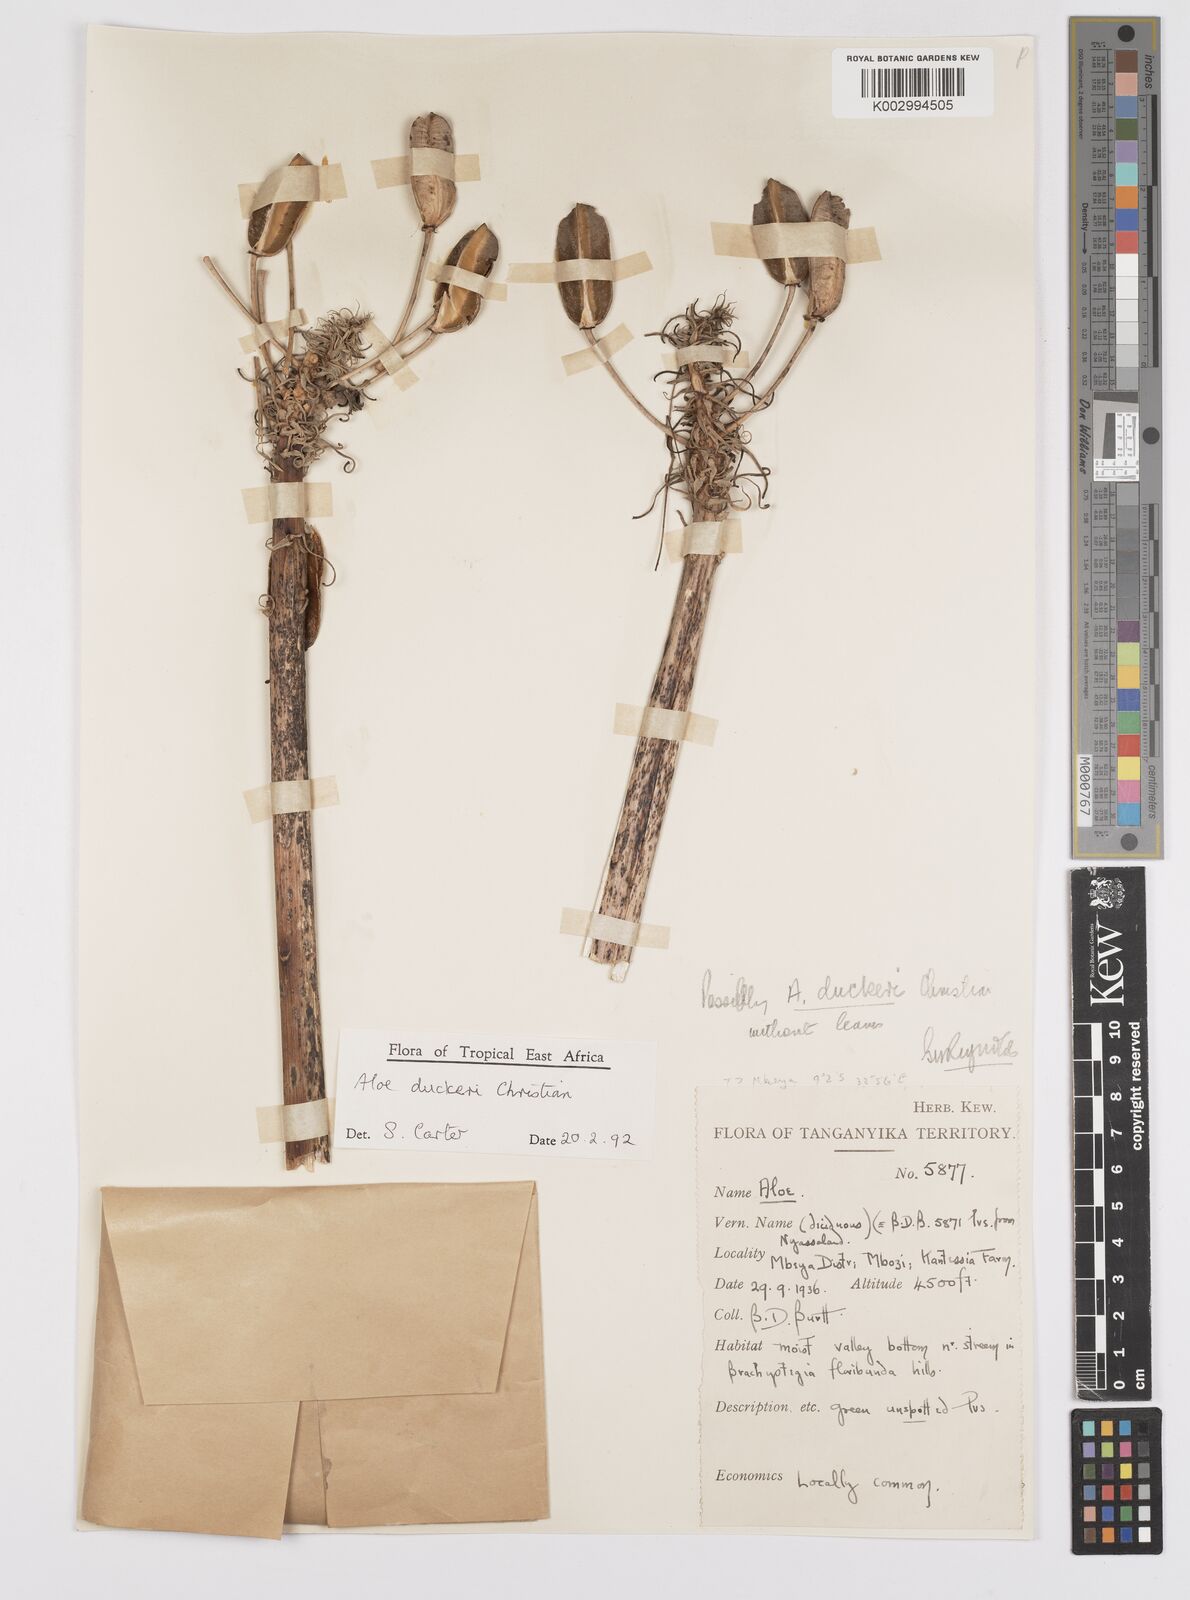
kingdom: Plantae
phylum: Tracheophyta
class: Liliopsida
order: Asparagales
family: Asphodelaceae
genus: Aloe
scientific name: Aloe duckeri
